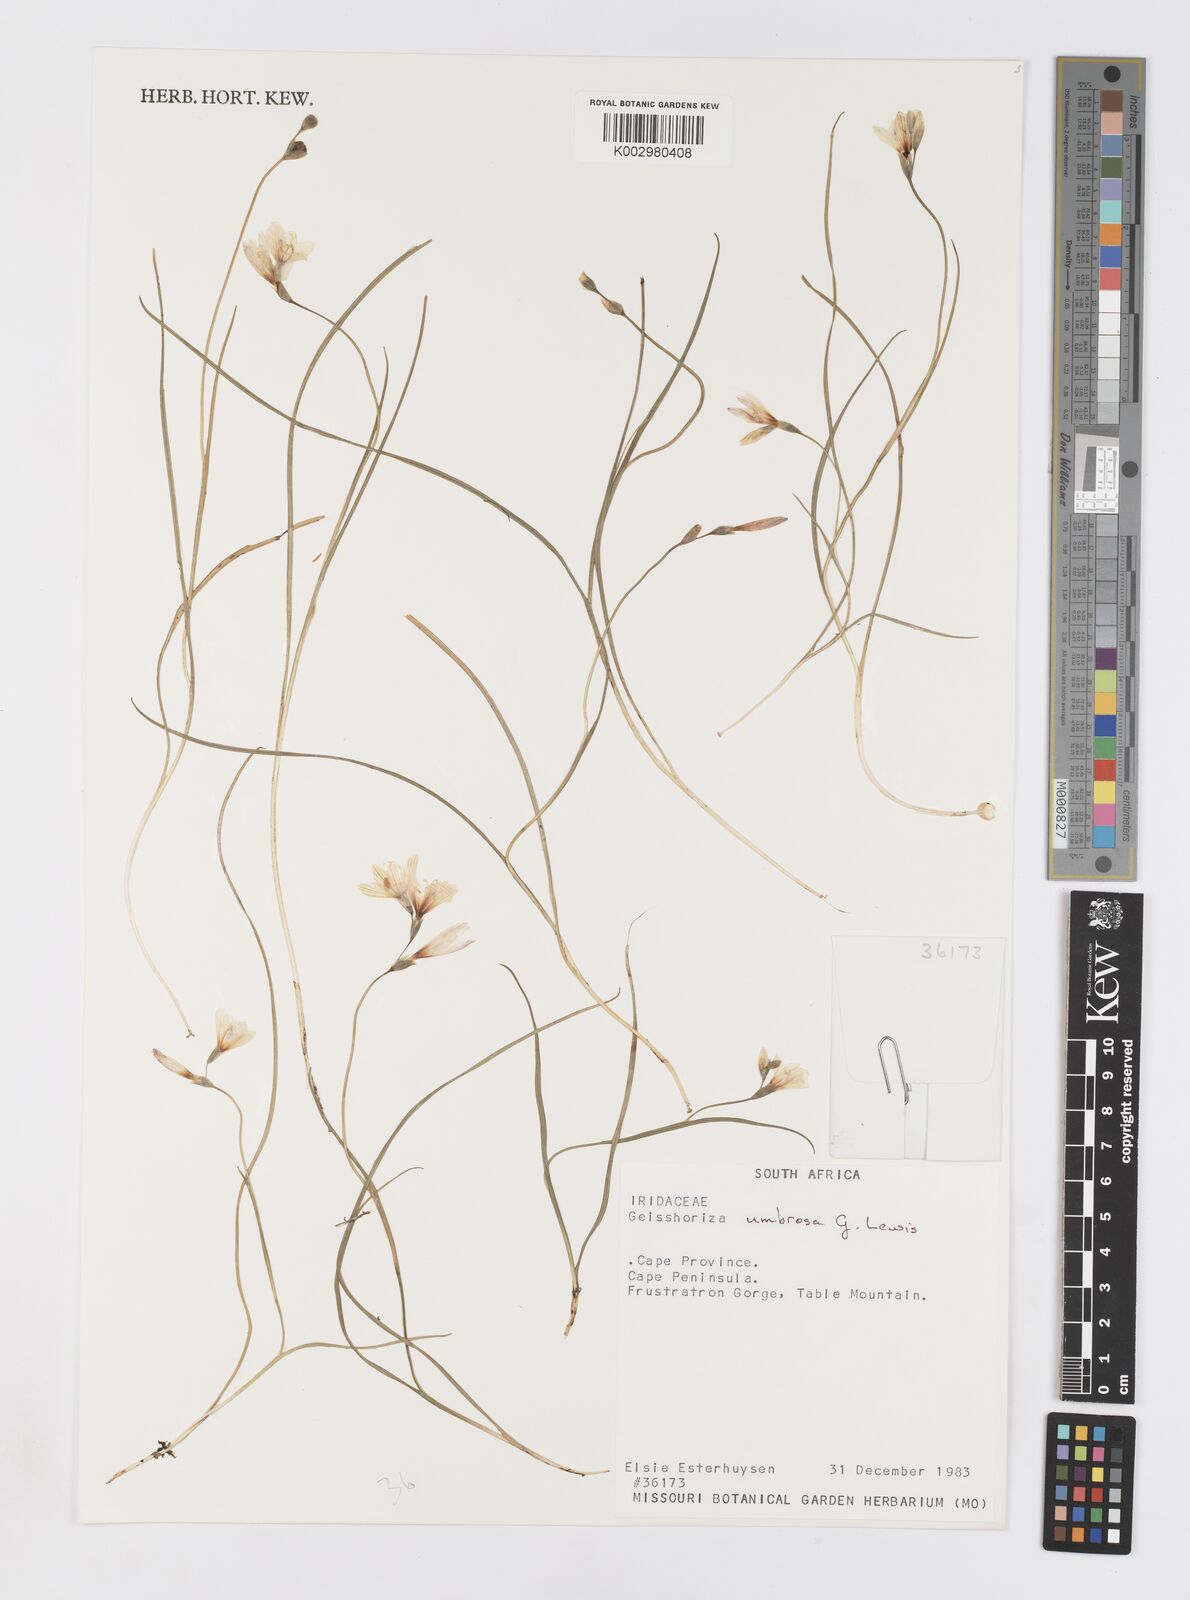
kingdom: Plantae
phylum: Tracheophyta
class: Liliopsida
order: Asparagales
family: Iridaceae
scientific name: Iridaceae
